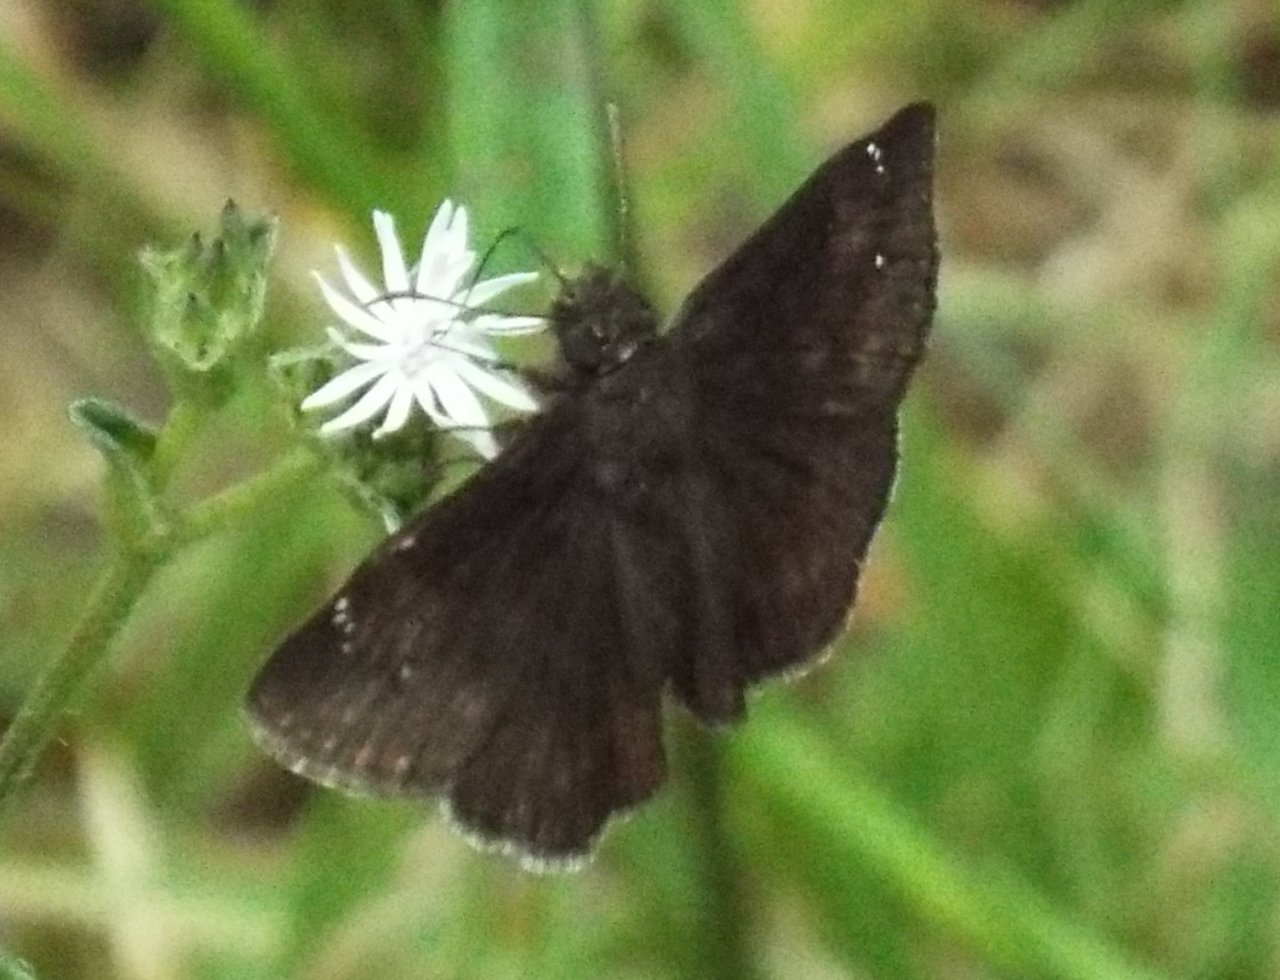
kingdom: Animalia
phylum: Arthropoda
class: Insecta
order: Lepidoptera
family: Hesperiidae
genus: Erynnis
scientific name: Erynnis zarucco
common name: Zarucco Duskywing
